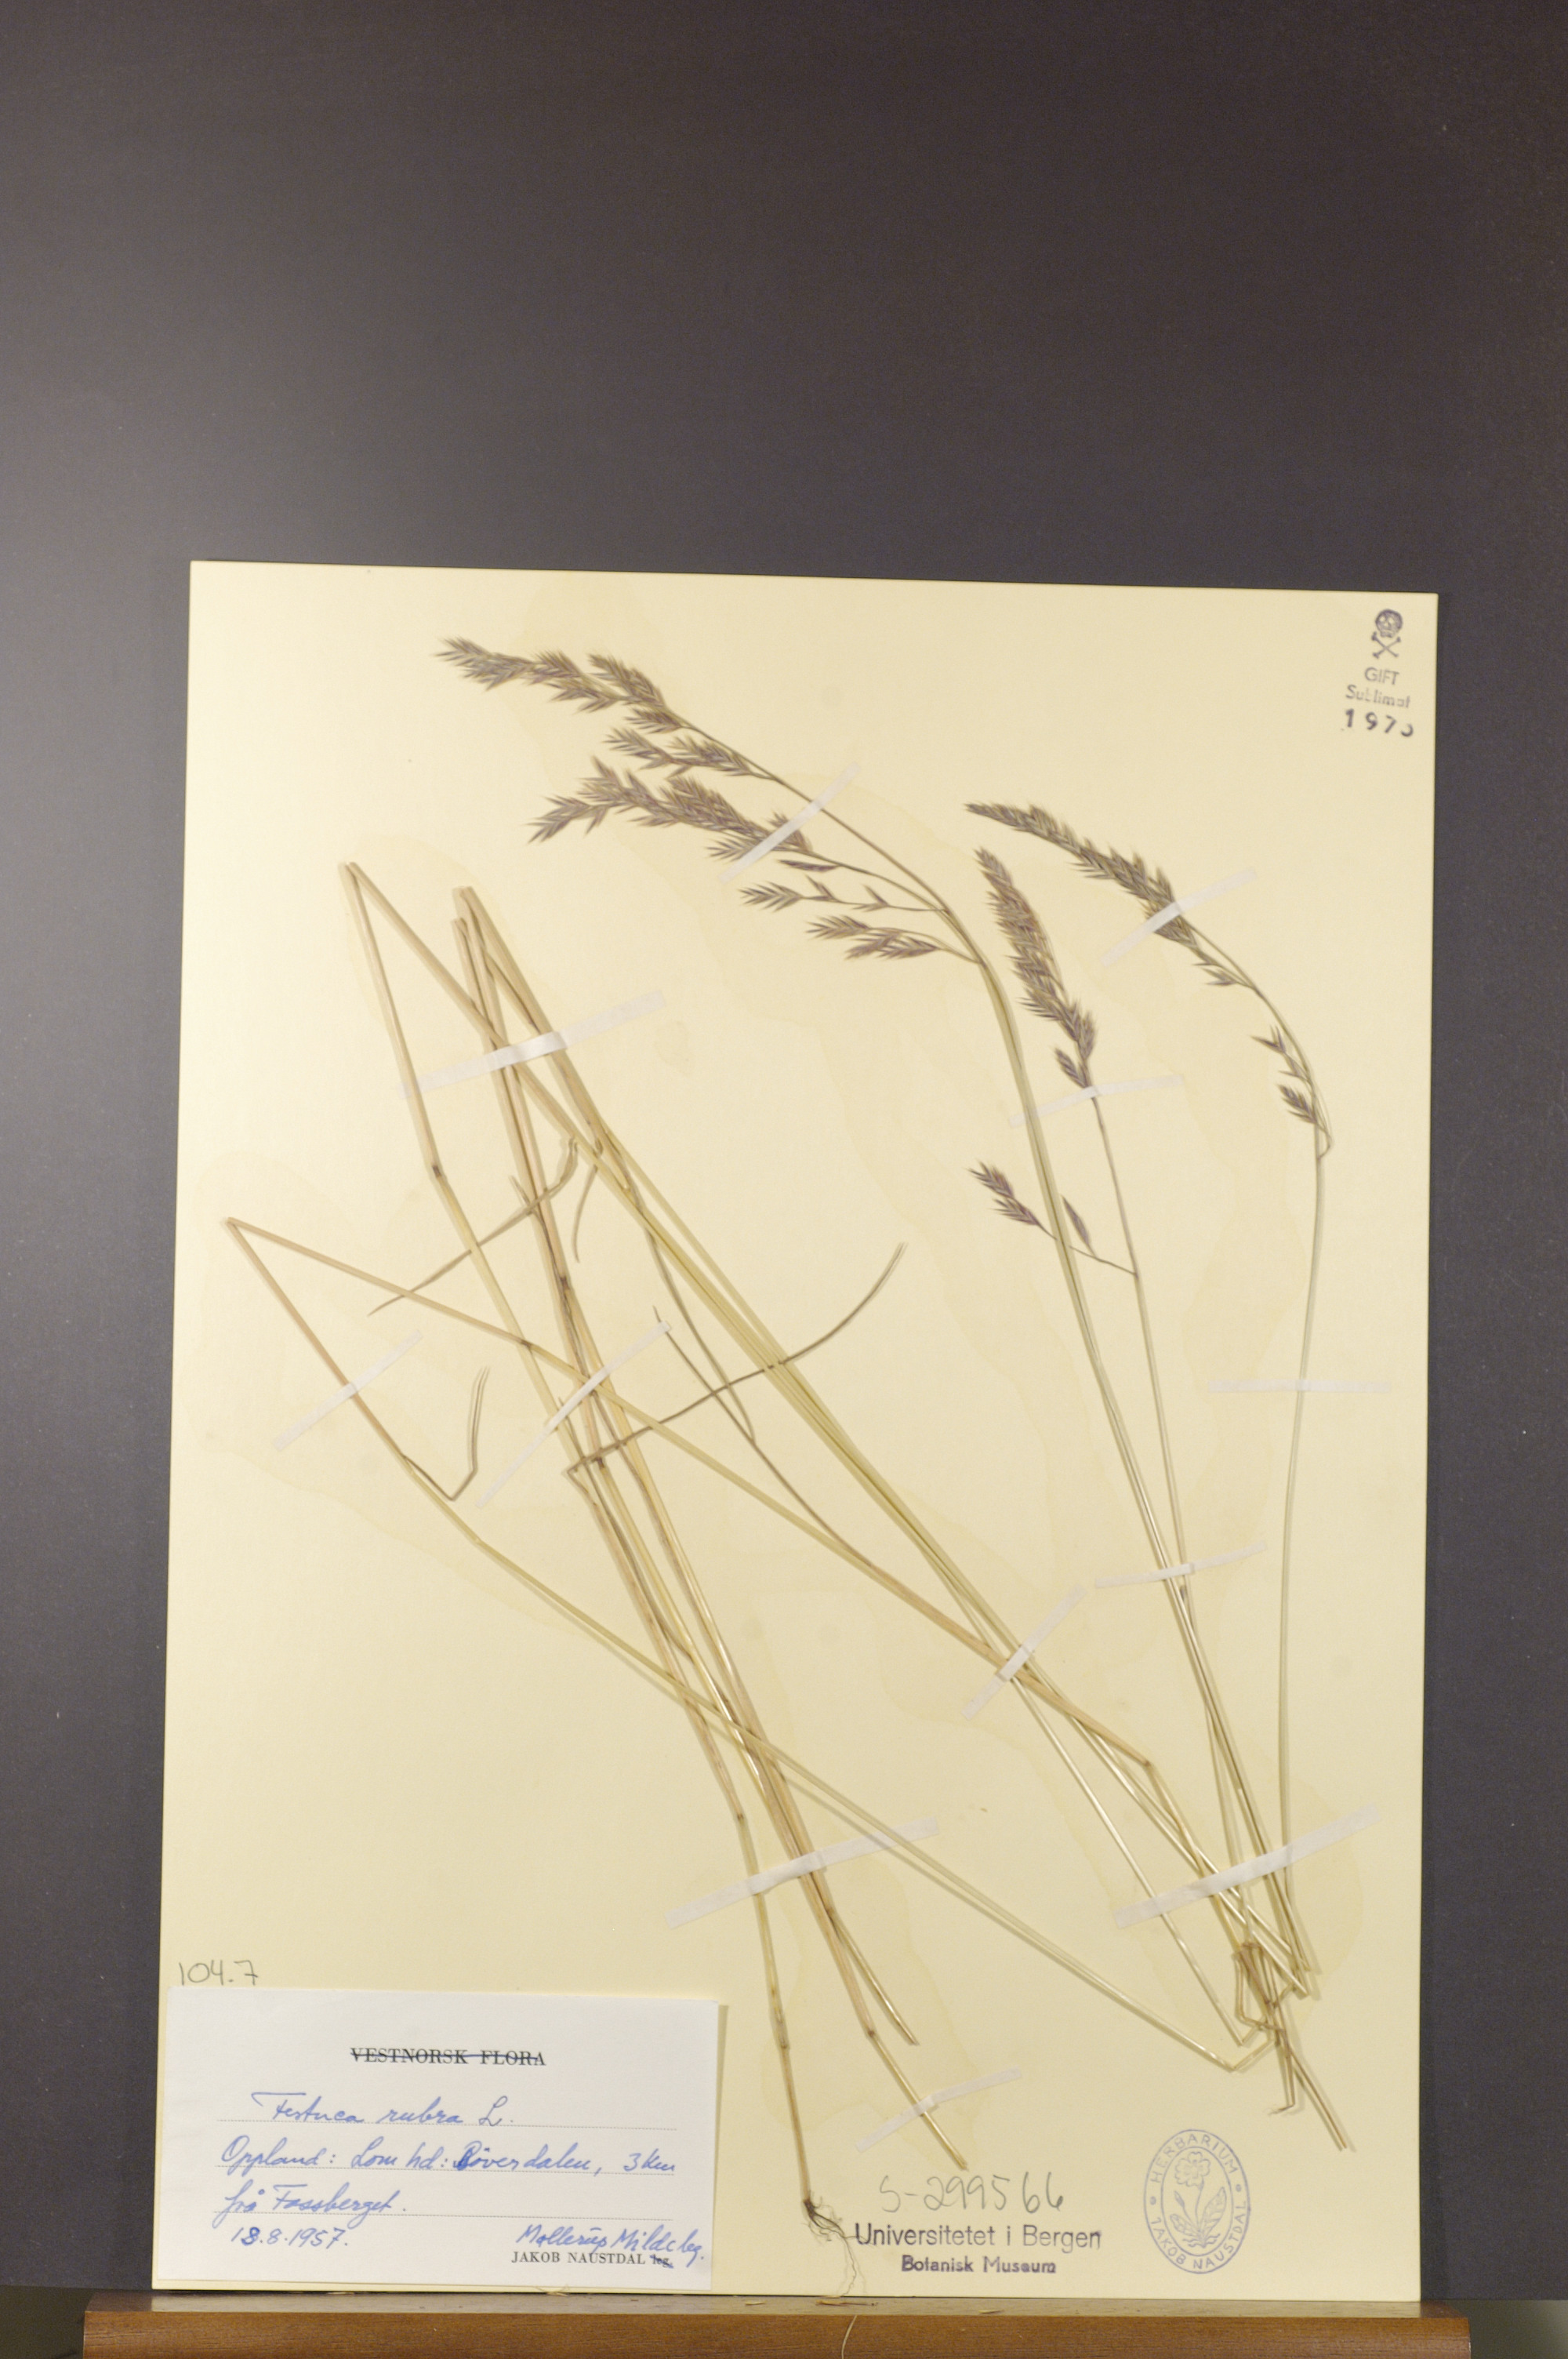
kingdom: Plantae
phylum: Tracheophyta
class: Liliopsida
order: Poales
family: Poaceae
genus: Festuca
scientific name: Festuca rubra
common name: Red fescue
